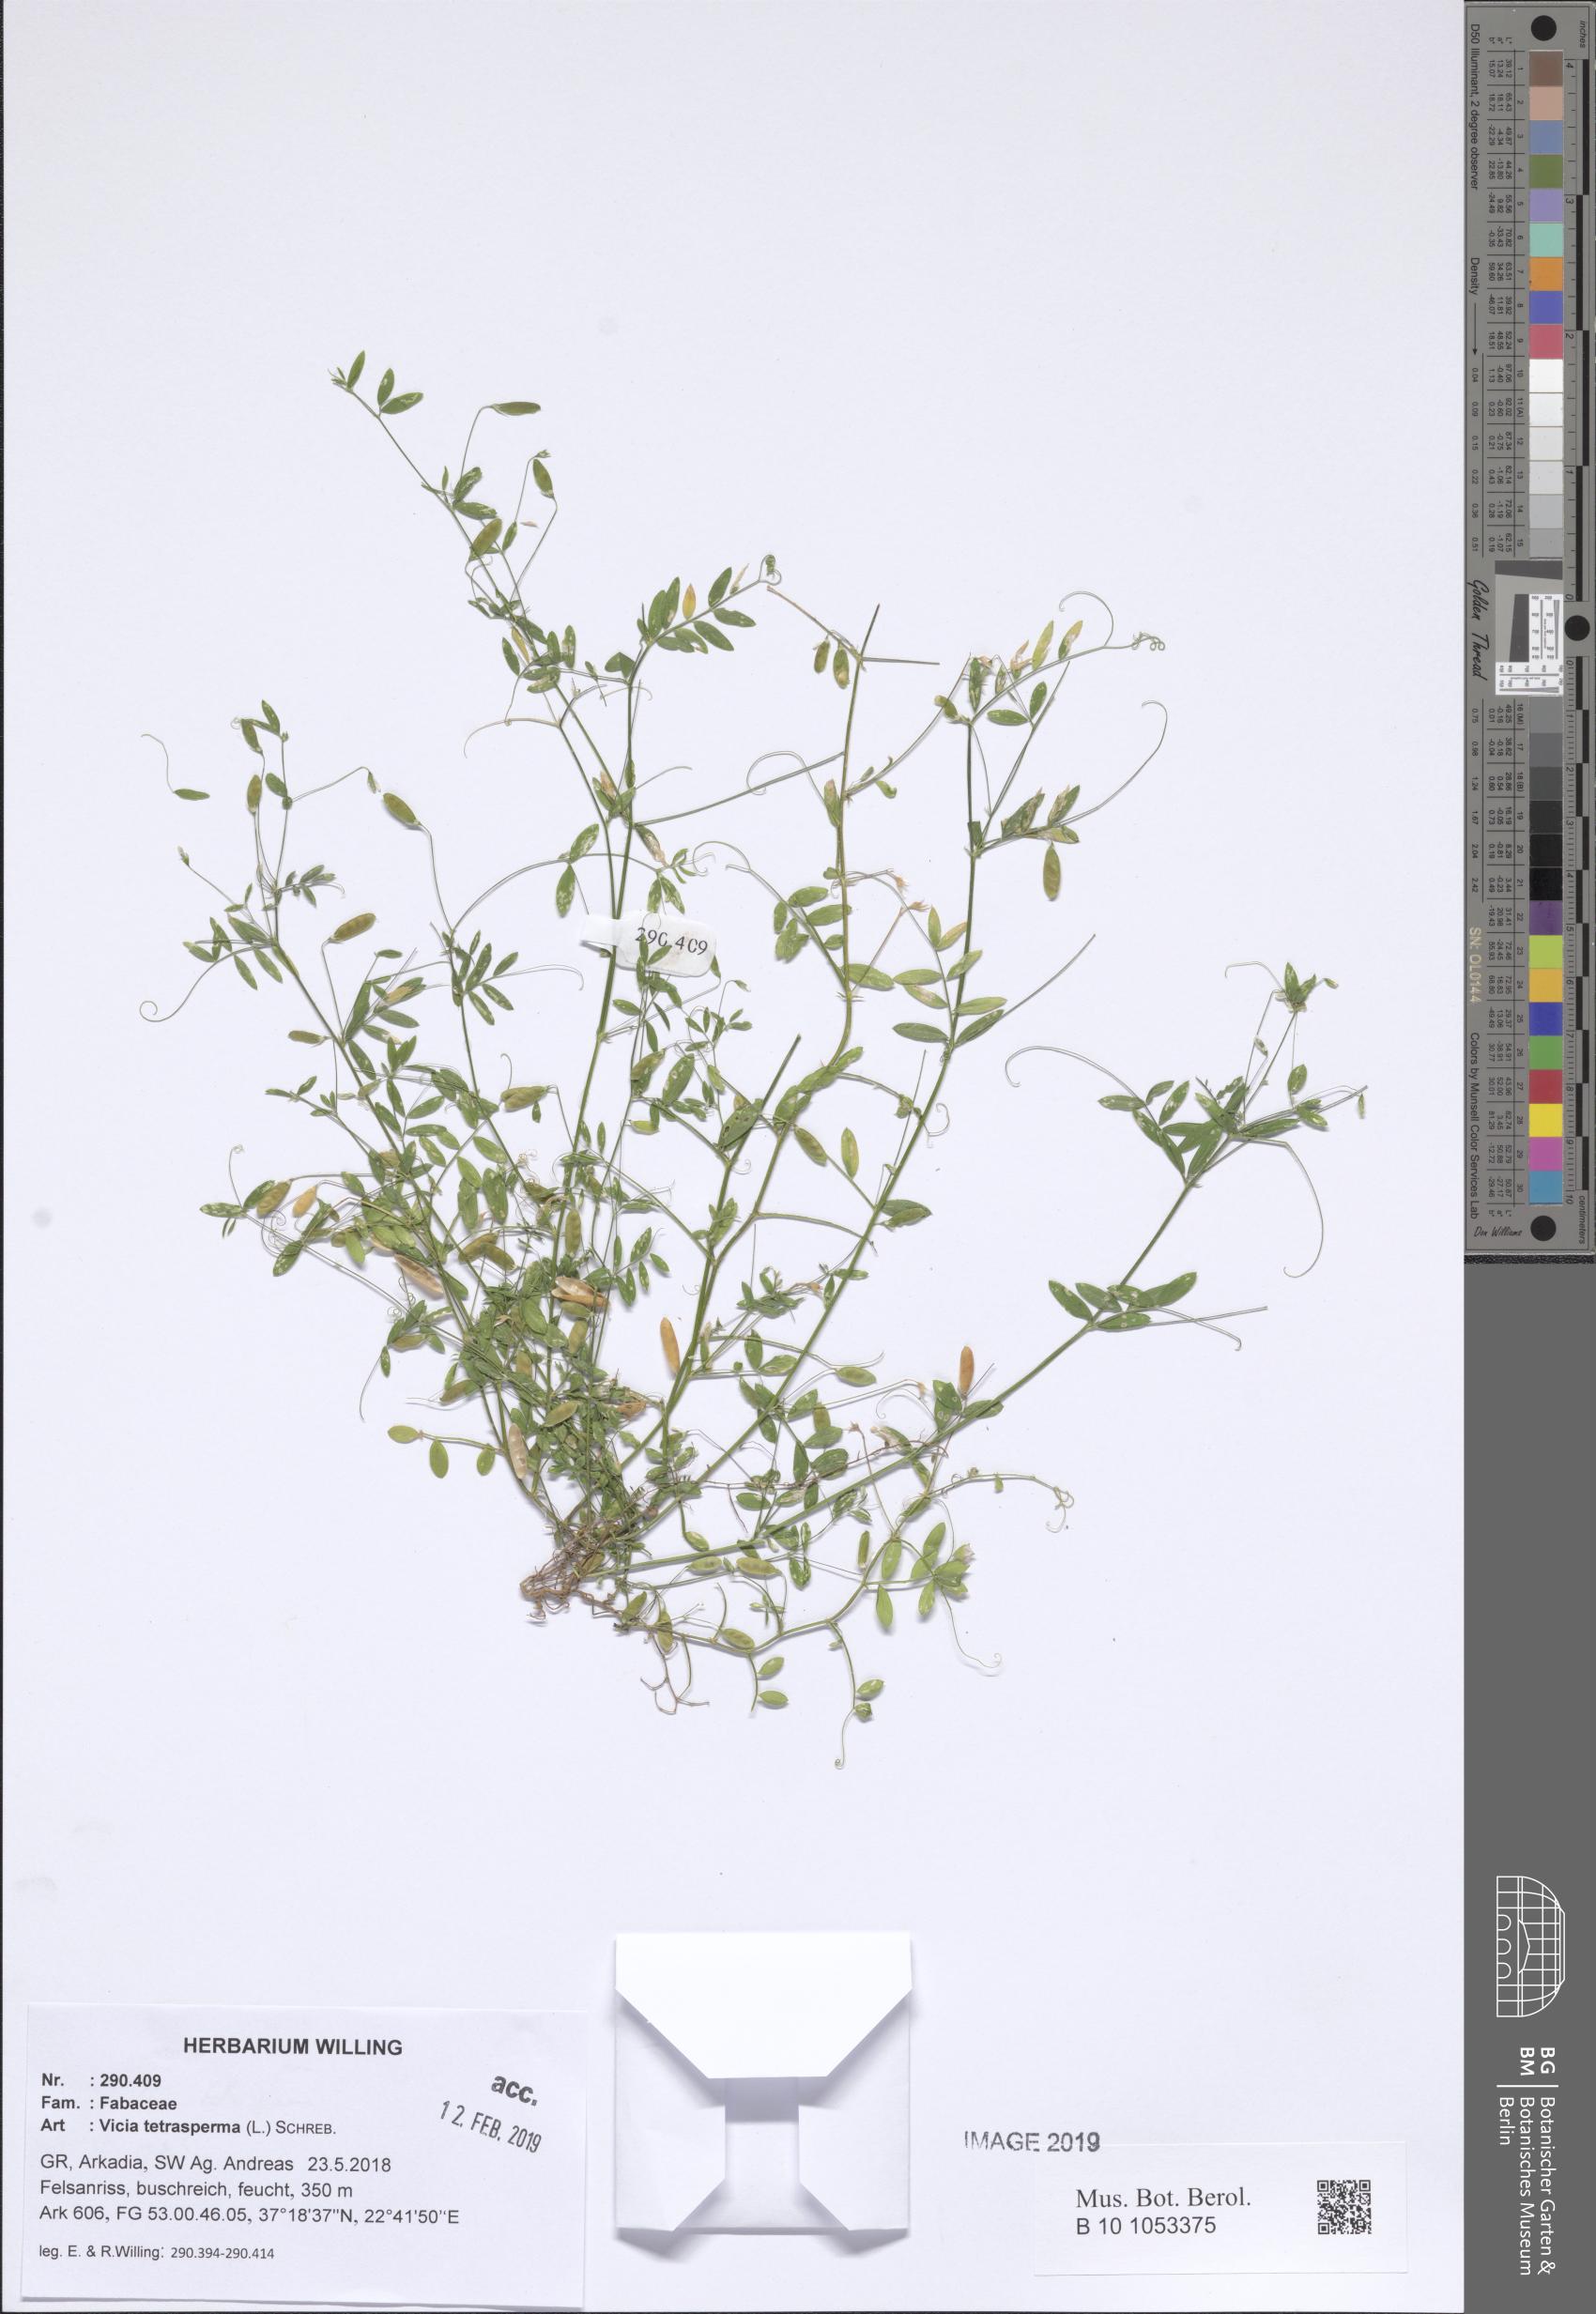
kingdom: Plantae
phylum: Tracheophyta
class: Magnoliopsida
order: Fabales
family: Fabaceae
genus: Vicia
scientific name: Vicia tetrasperma
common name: Smooth tare
